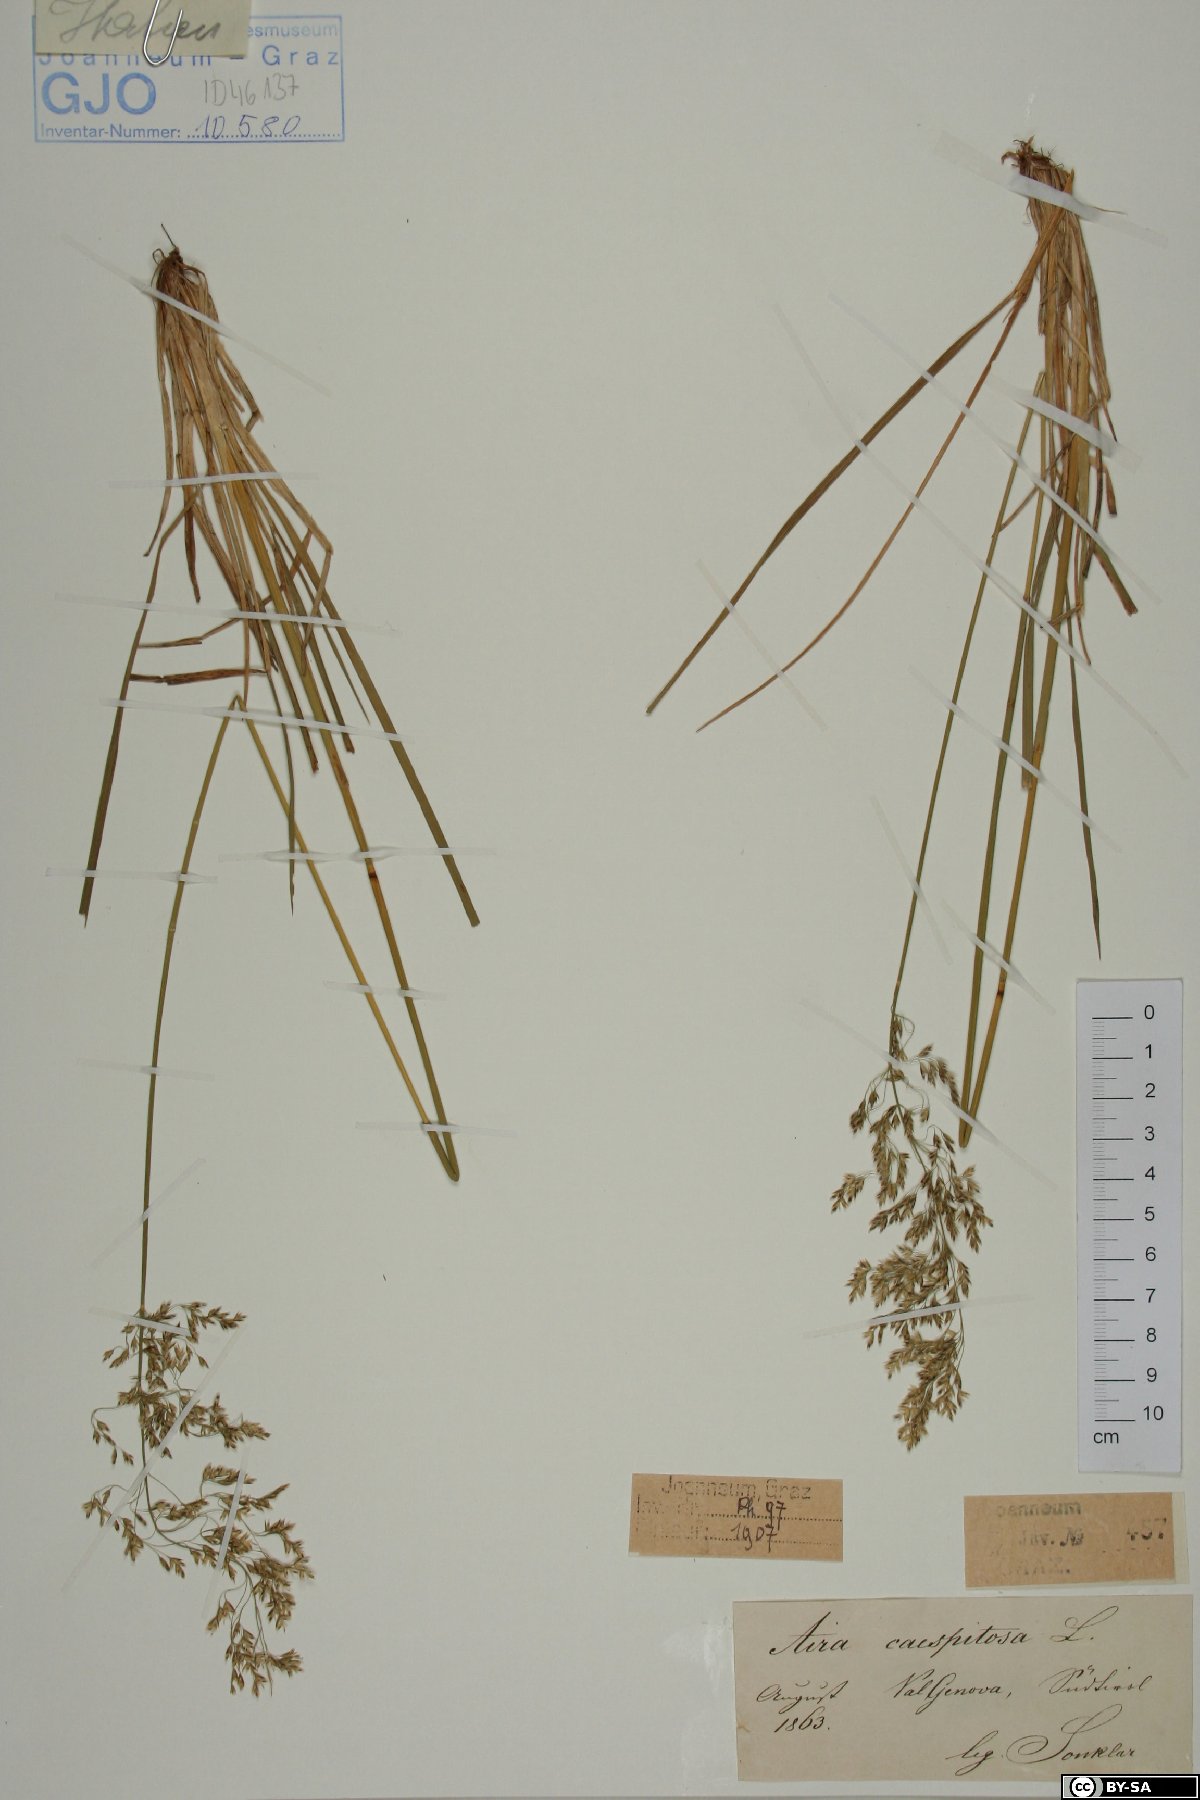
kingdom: Plantae
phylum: Tracheophyta
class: Liliopsida
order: Poales
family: Poaceae
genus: Deschampsia
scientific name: Deschampsia cespitosa
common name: Tufted hair-grass
